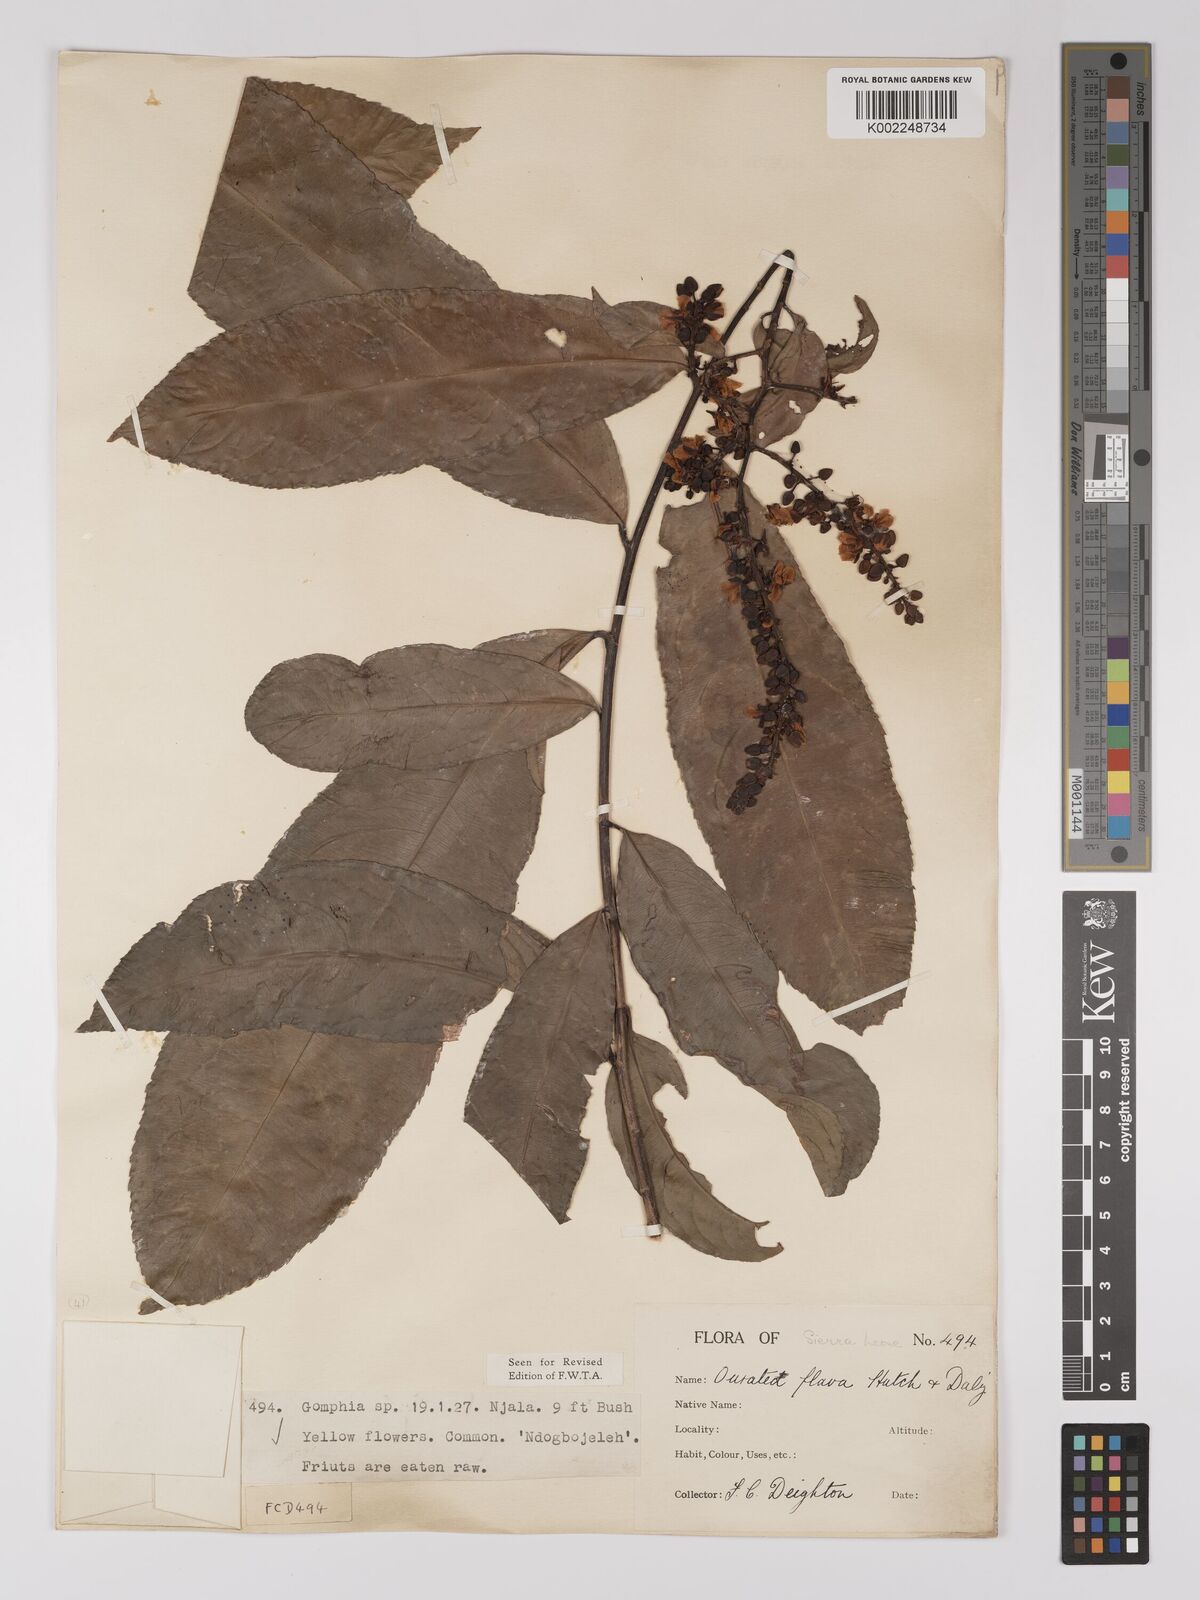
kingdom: Plantae
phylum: Tracheophyta
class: Magnoliopsida
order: Malpighiales
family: Ochnaceae
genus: Campylospermum
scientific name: Campylospermum flavum
